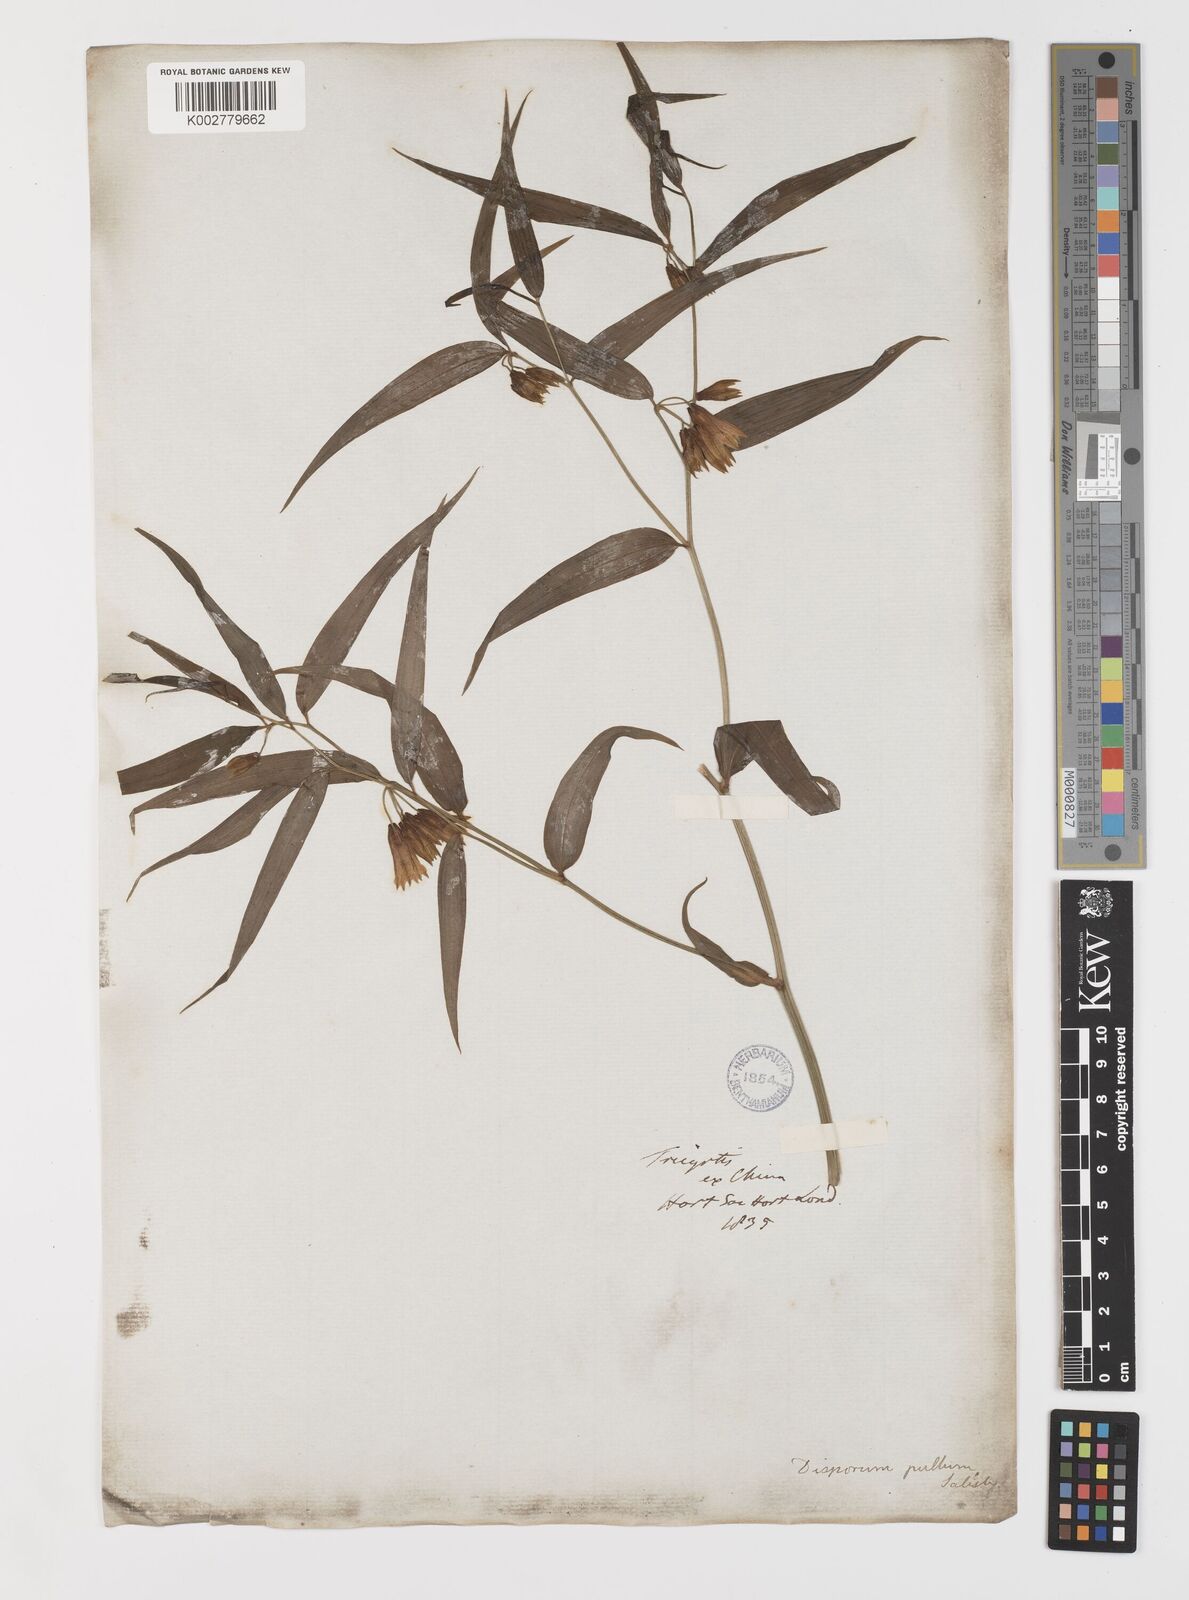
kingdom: Plantae
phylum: Tracheophyta
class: Liliopsida
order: Liliales
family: Colchicaceae
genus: Disporum
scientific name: Disporum cantoniense
